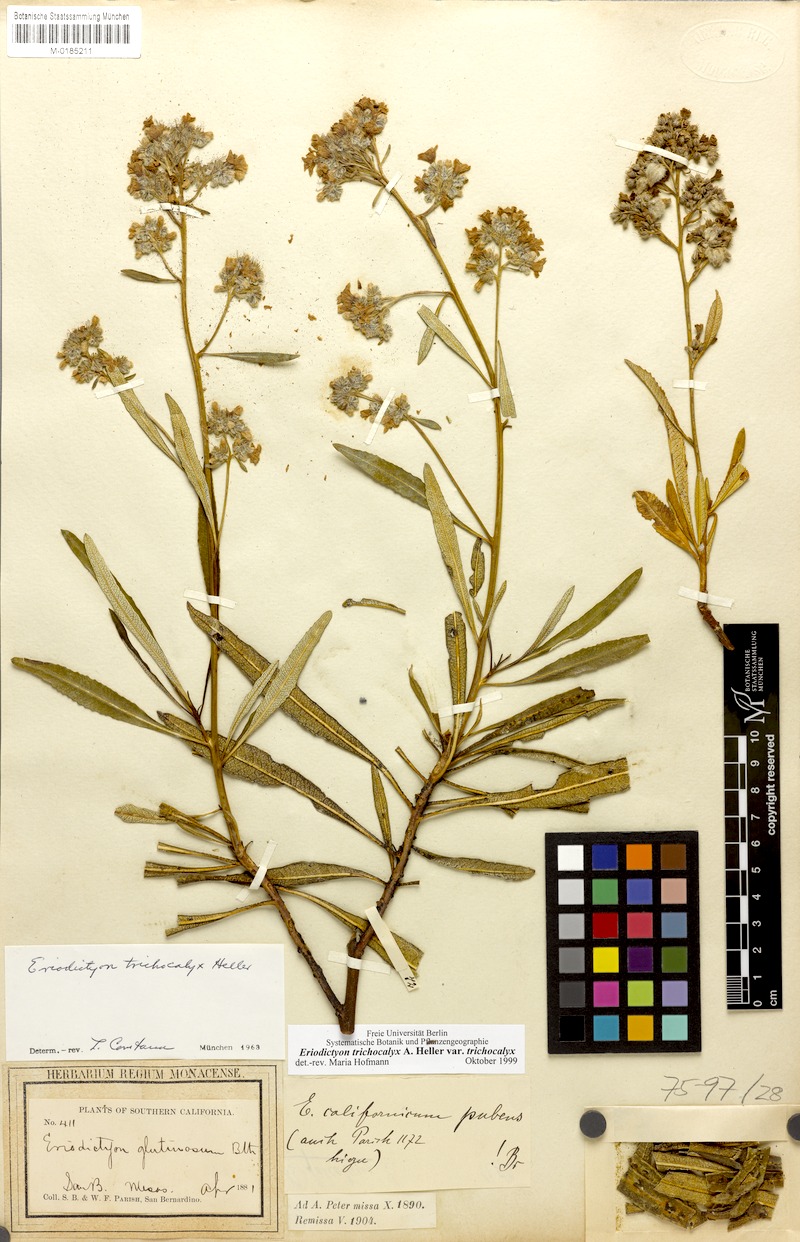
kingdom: Plantae
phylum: Tracheophyta
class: Magnoliopsida
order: Boraginales
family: Namaceae
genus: Eriodictyon
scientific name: Eriodictyon trichocalyx
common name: Hairy yerba-santa
